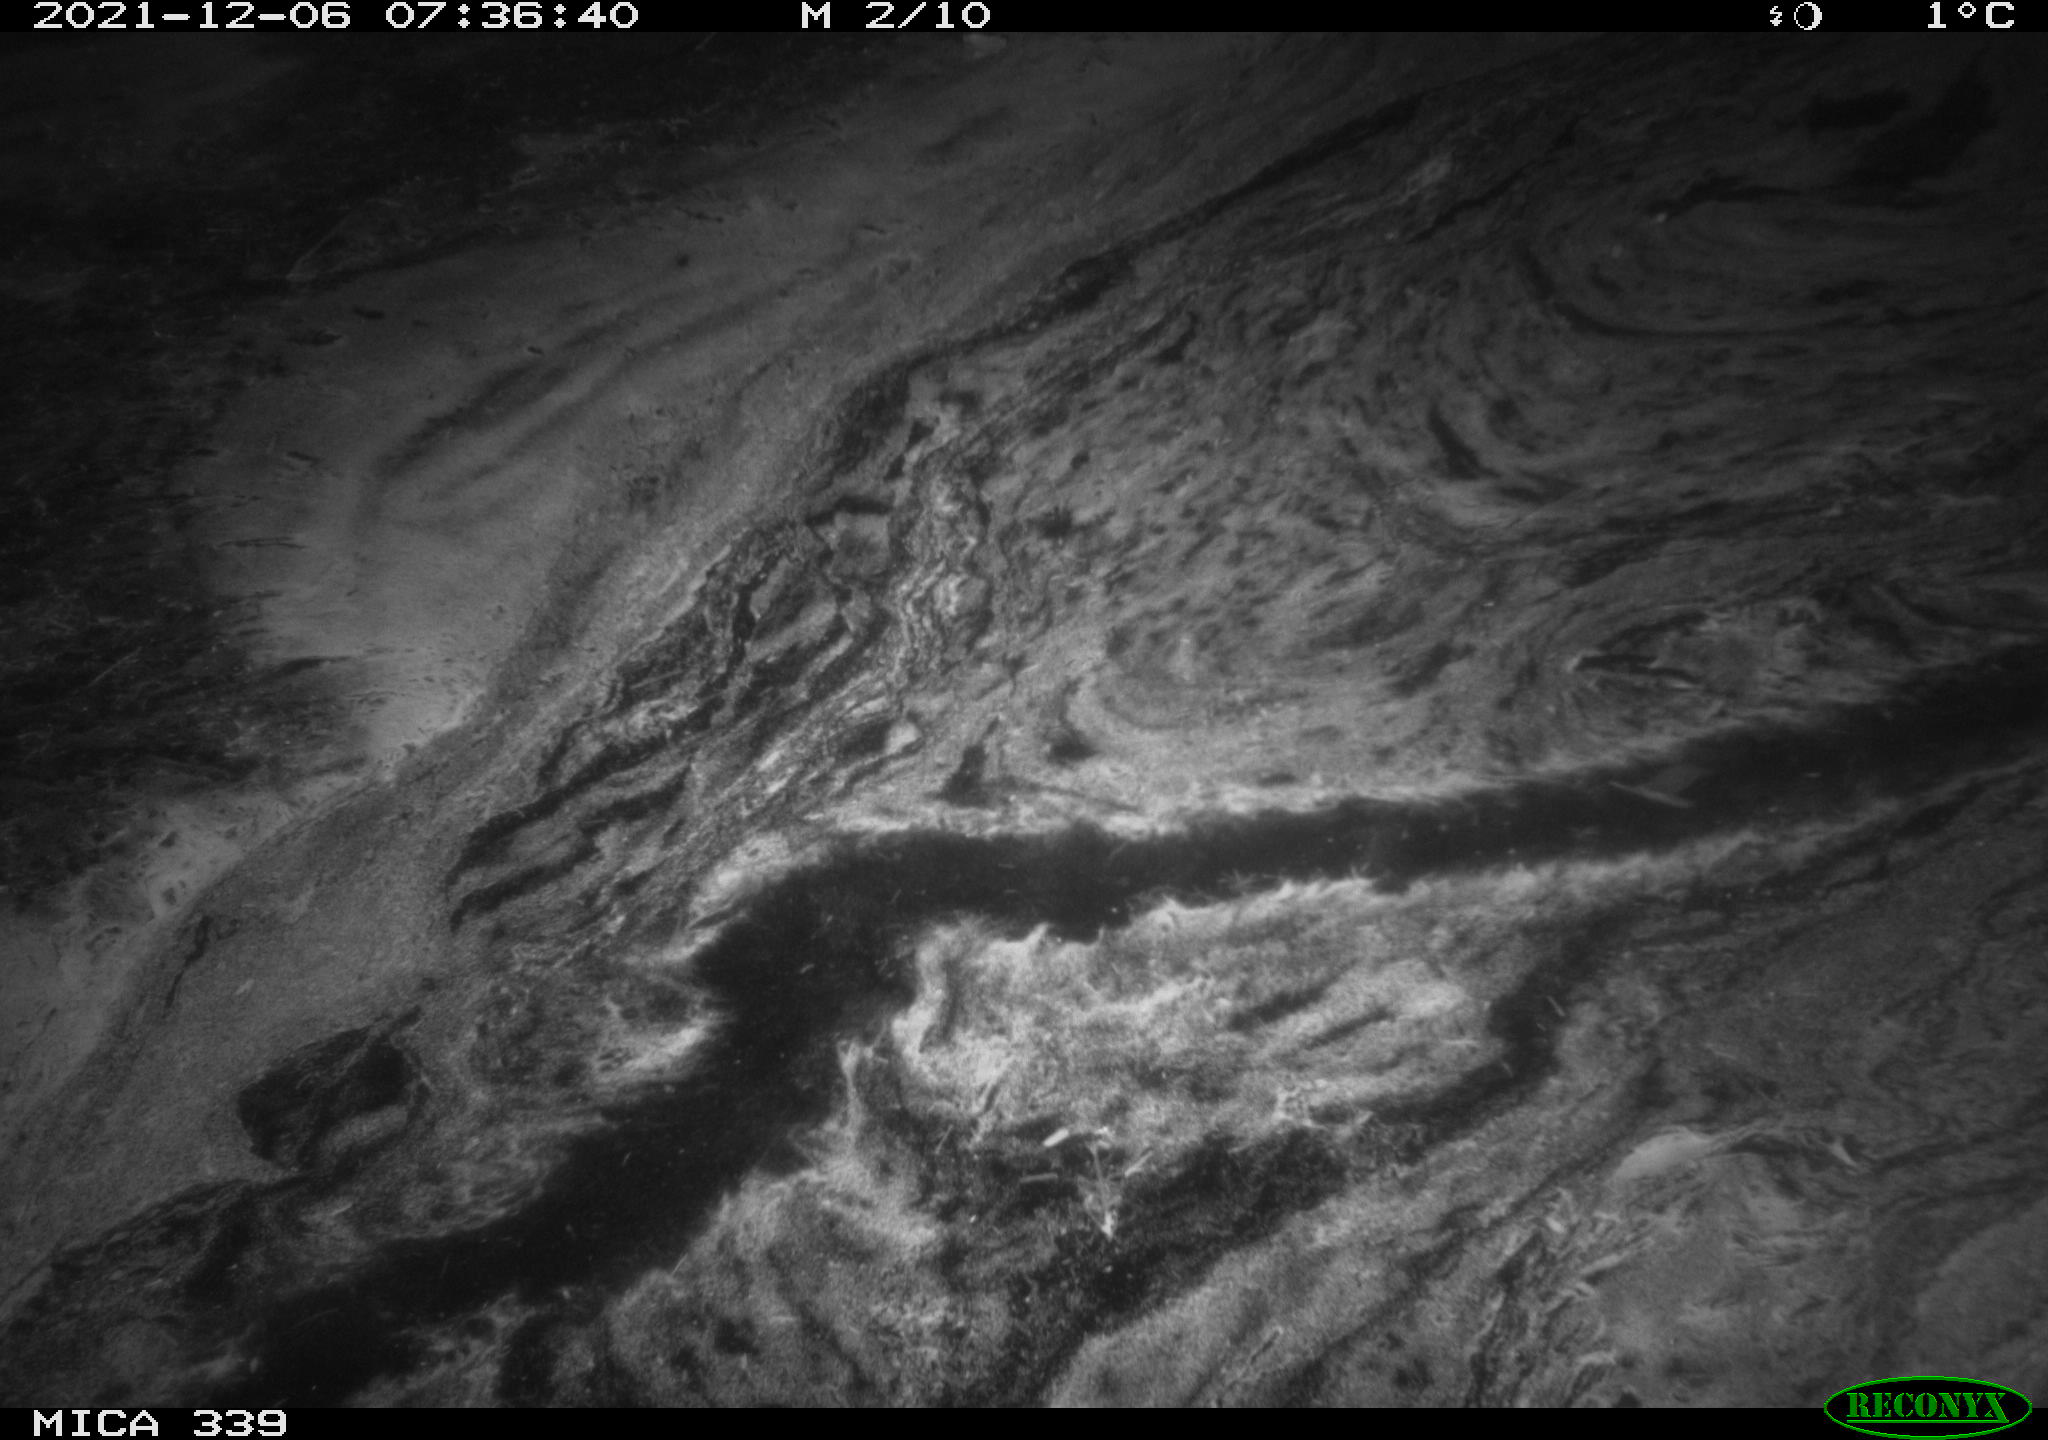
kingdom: Animalia
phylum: Chordata
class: Mammalia
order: Rodentia
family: Muridae
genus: Rattus
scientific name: Rattus norvegicus
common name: Brown rat
